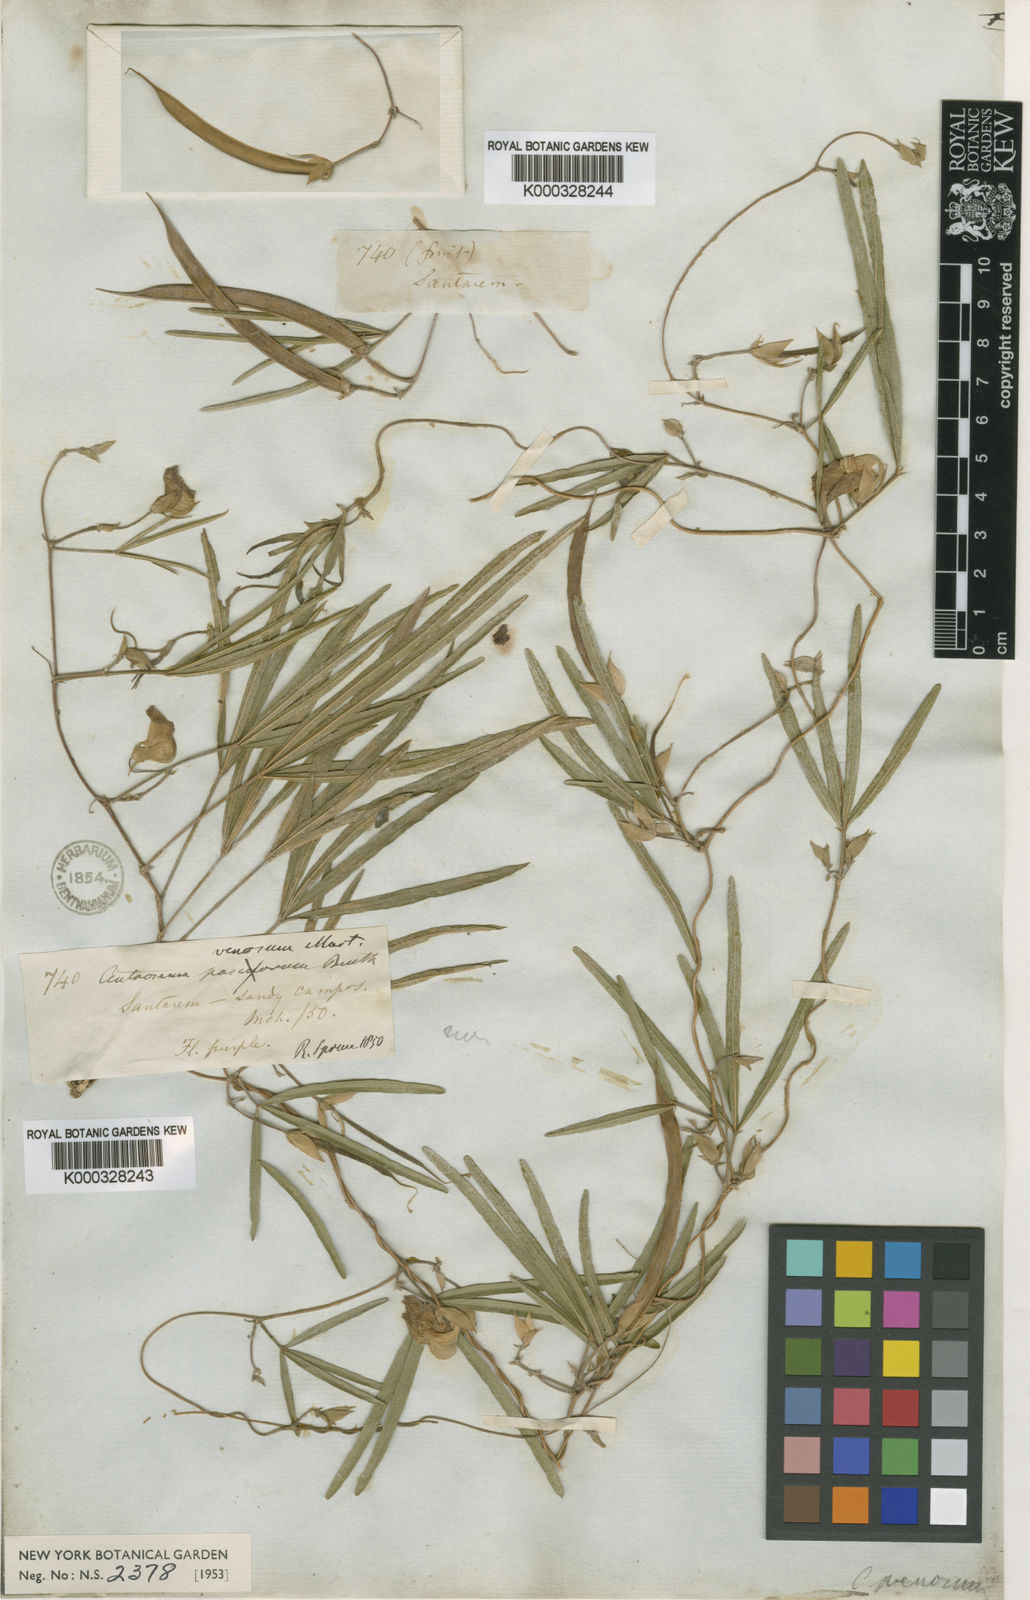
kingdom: Plantae
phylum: Tracheophyta
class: Magnoliopsida
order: Fabales
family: Fabaceae
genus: Centrosema
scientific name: Centrosema venosum
